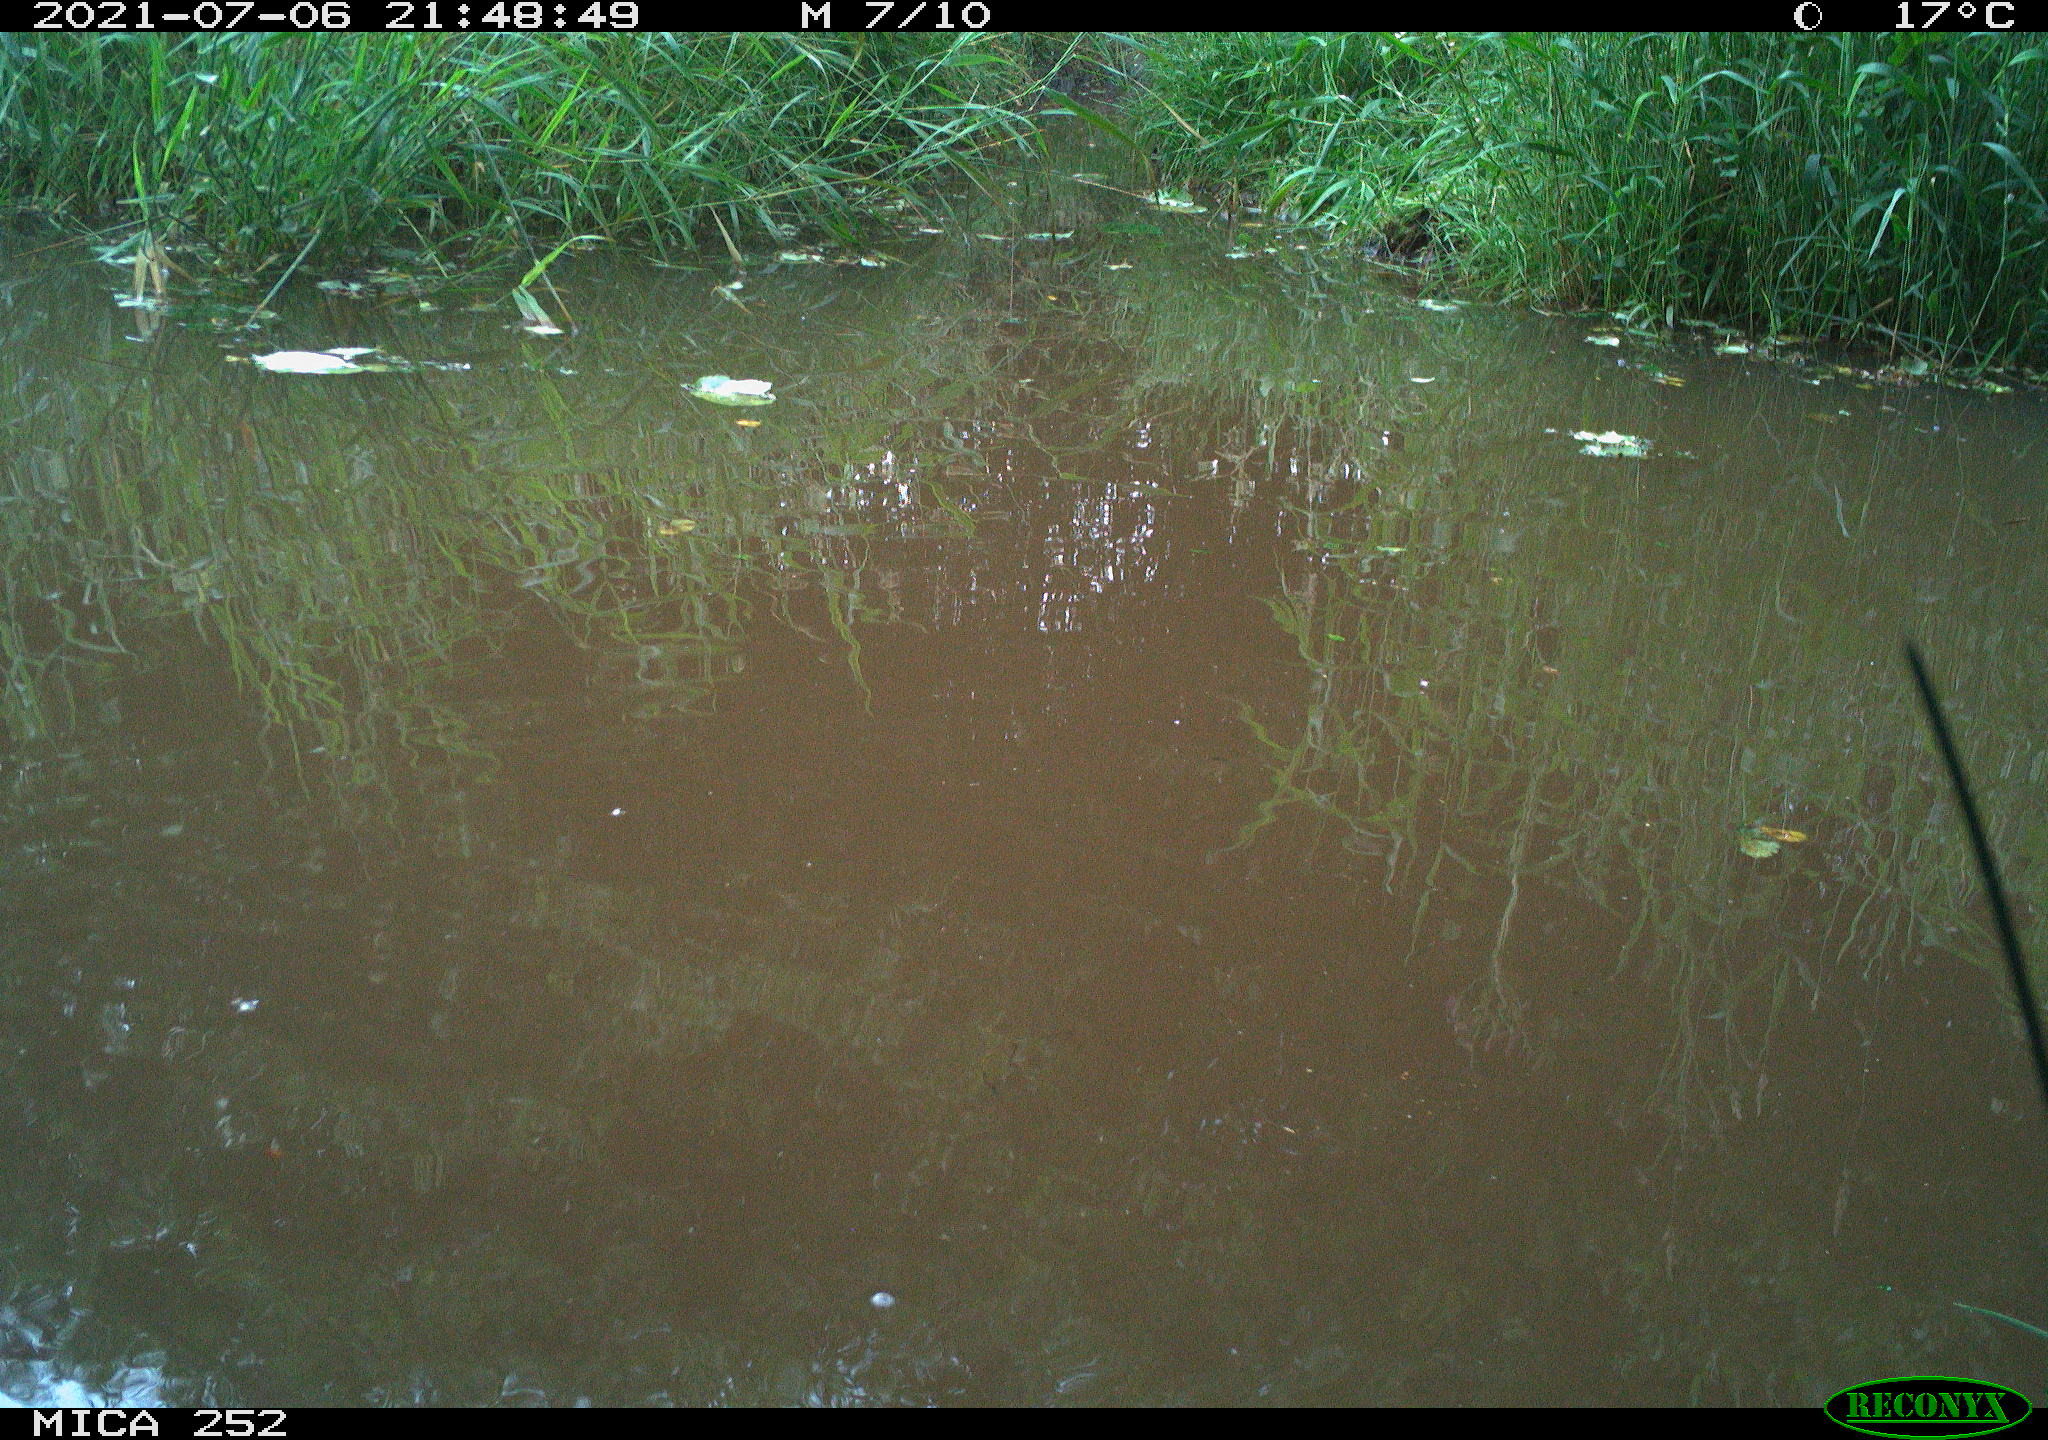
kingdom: Animalia
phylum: Chordata
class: Aves
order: Anseriformes
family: Anatidae
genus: Anas
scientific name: Anas platyrhynchos
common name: Mallard
